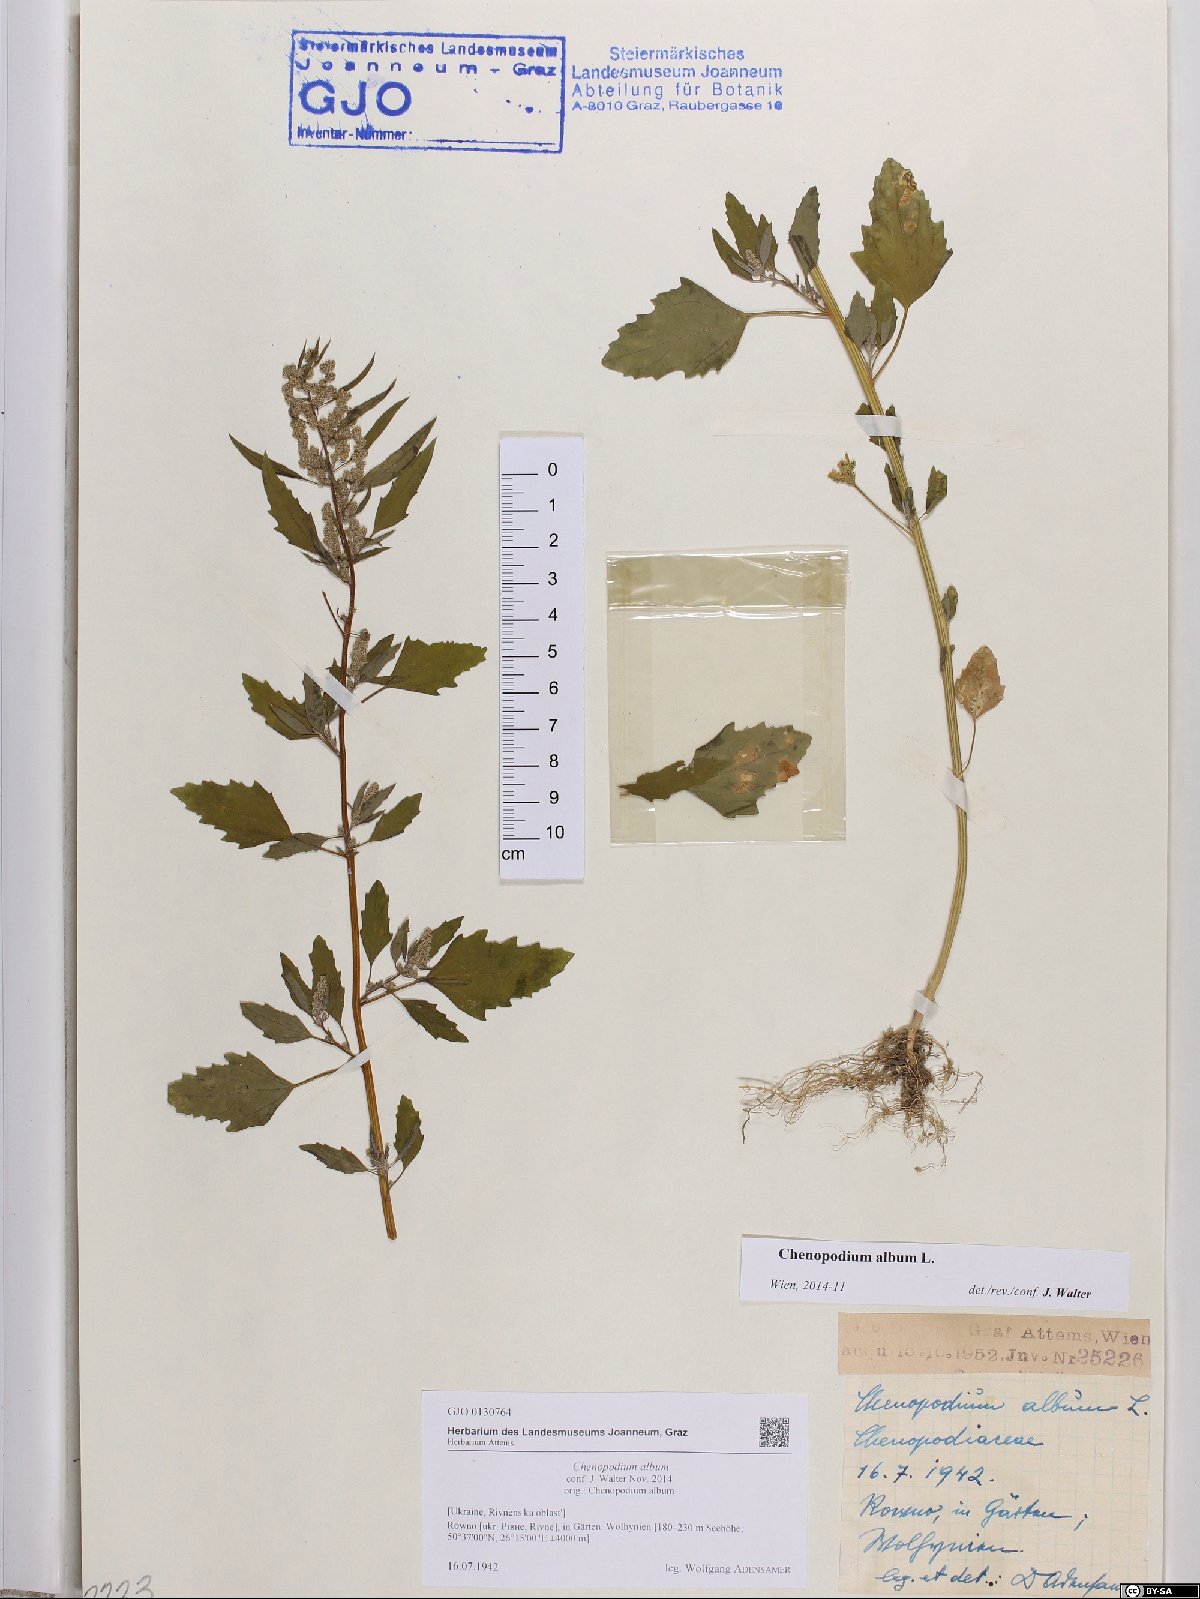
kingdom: Plantae
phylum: Tracheophyta
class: Magnoliopsida
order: Caryophyllales
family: Amaranthaceae
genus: Chenopodium
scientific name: Chenopodium album
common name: Fat-hen
